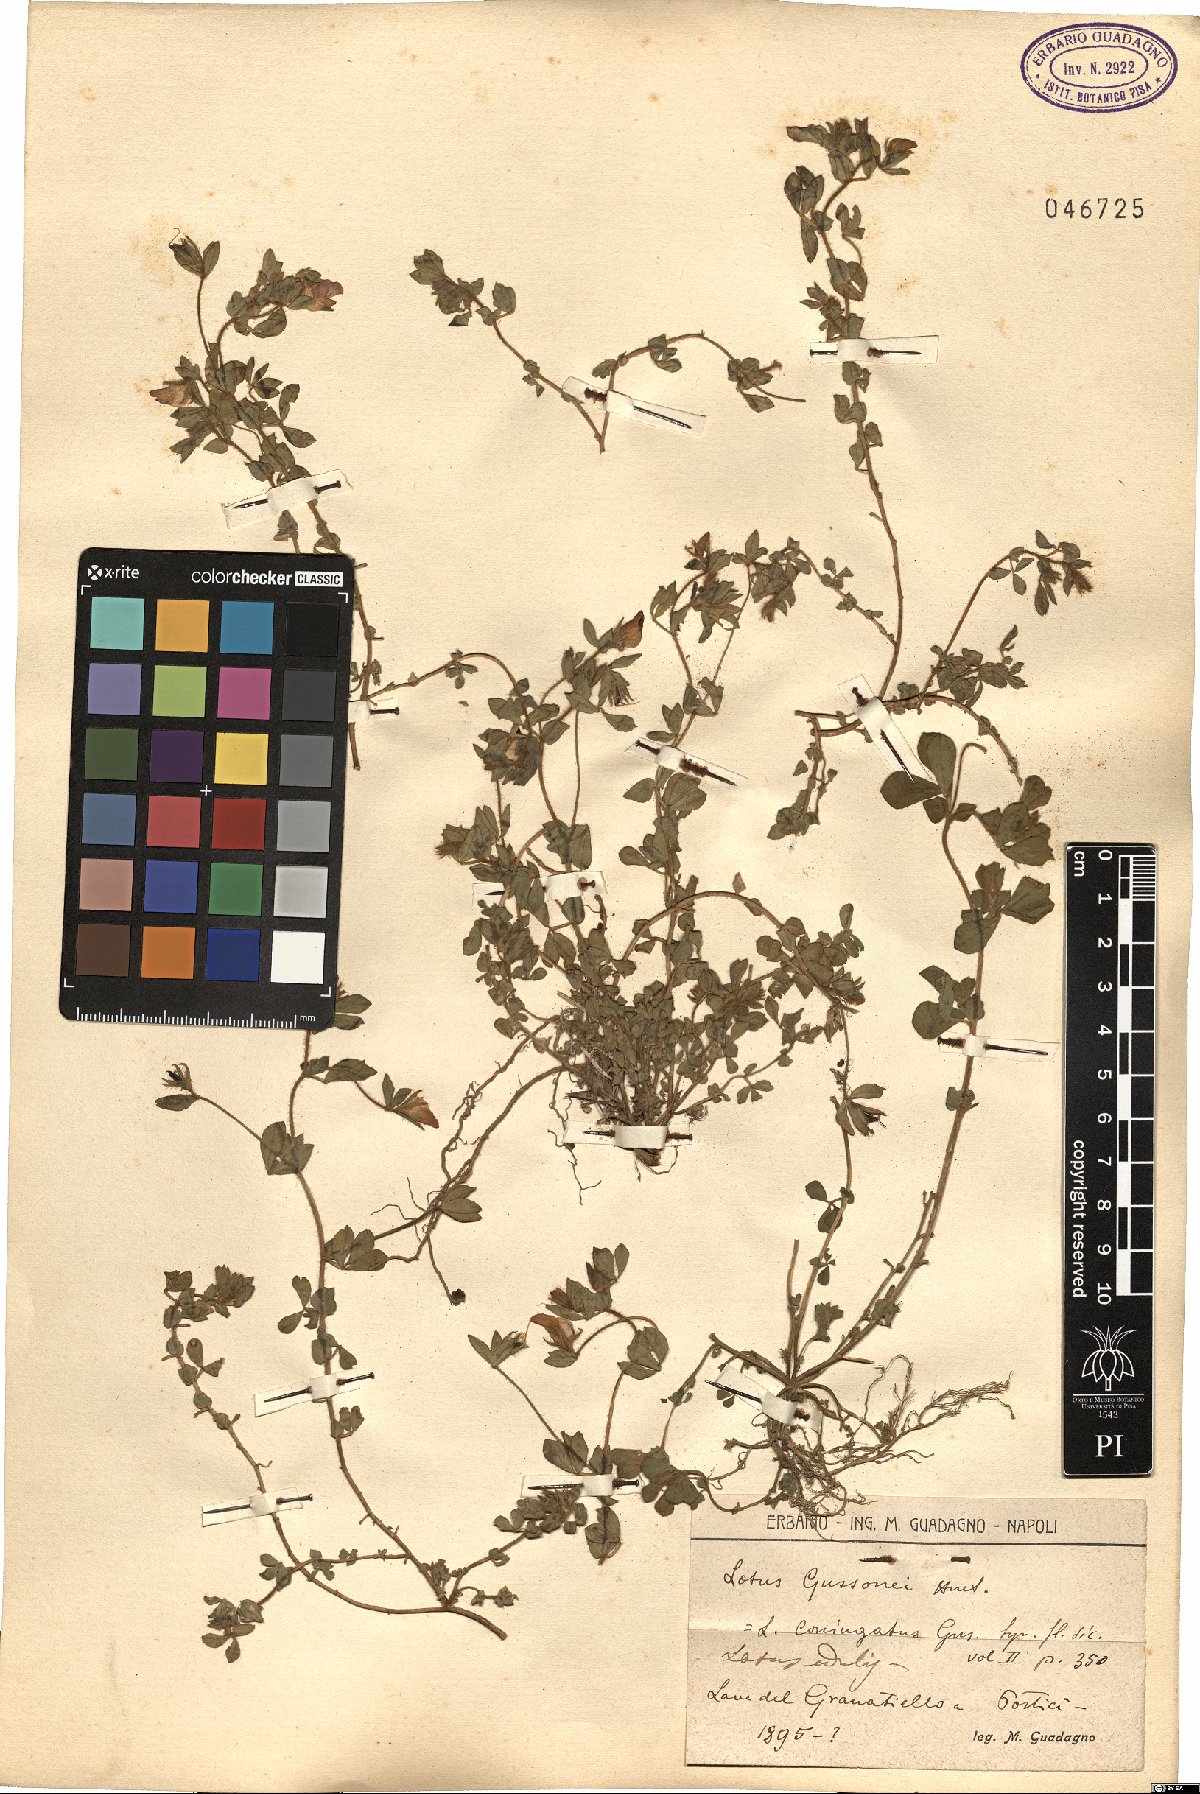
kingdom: Plantae
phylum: Tracheophyta
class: Magnoliopsida
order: Fabales
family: Fabaceae
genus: Lotus
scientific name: Lotus gussonei
